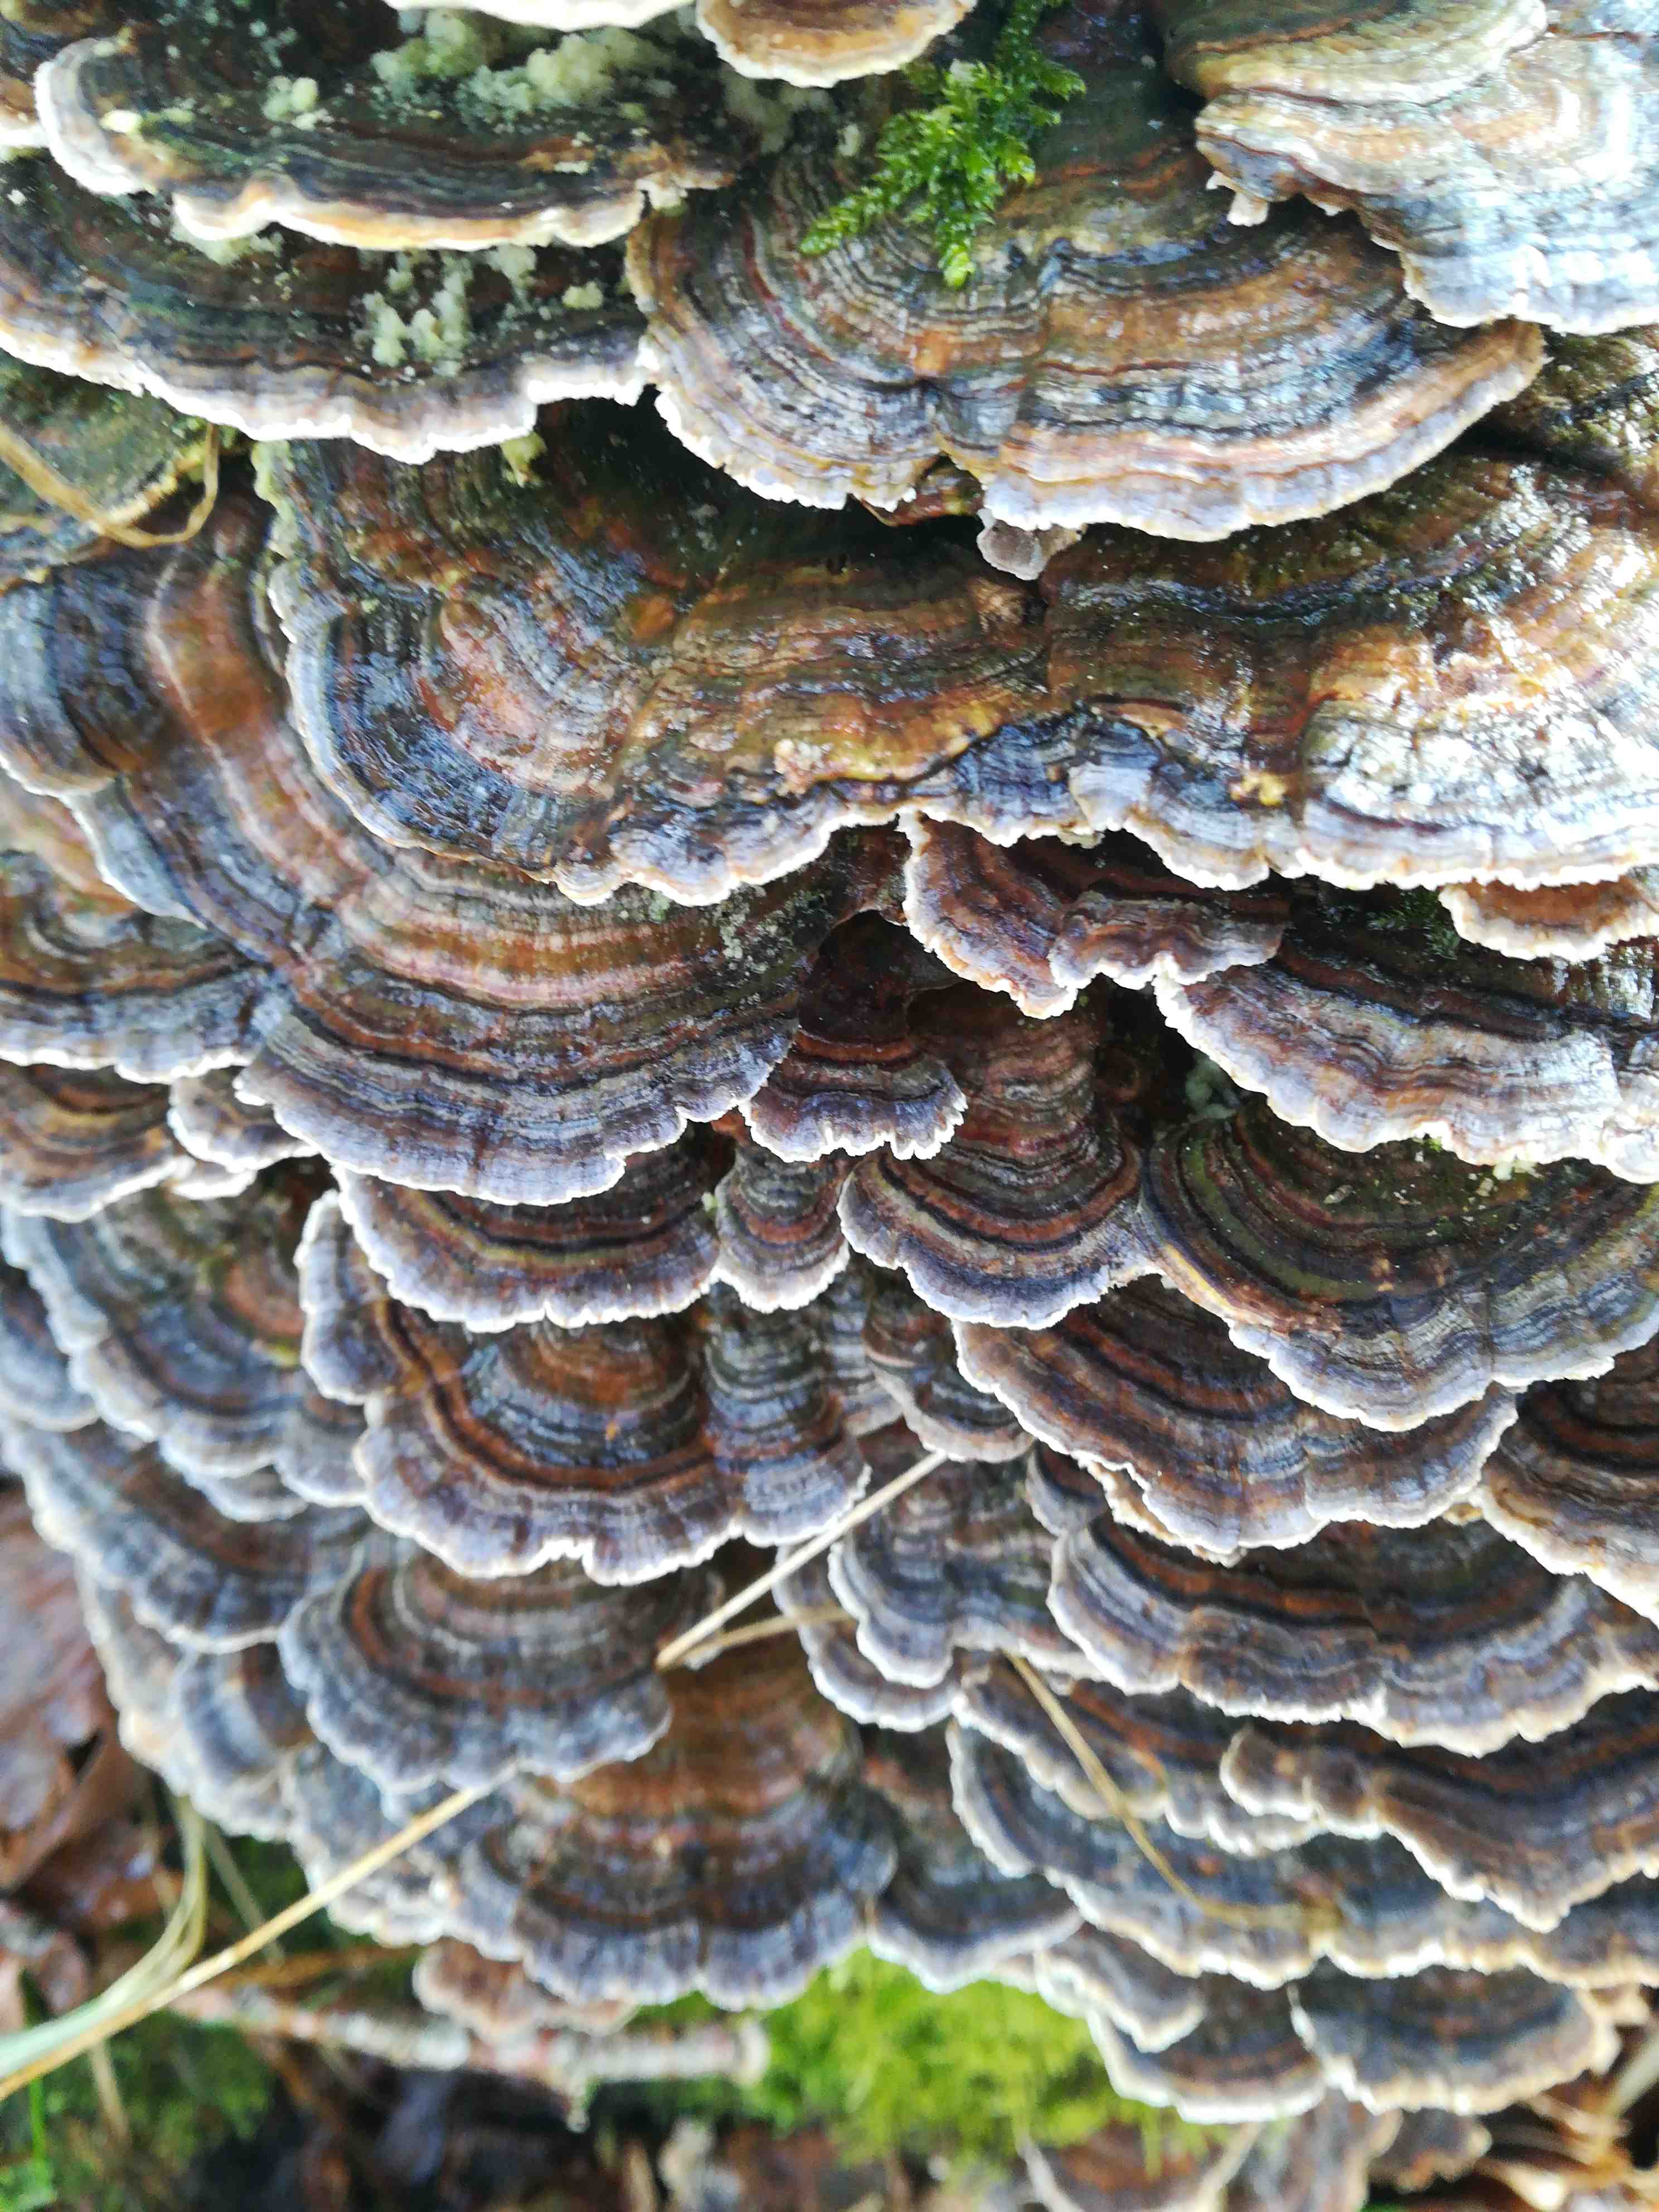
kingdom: Fungi
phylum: Basidiomycota
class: Agaricomycetes
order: Polyporales
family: Polyporaceae
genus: Trametes
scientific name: Trametes versicolor
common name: broget læderporesvamp
